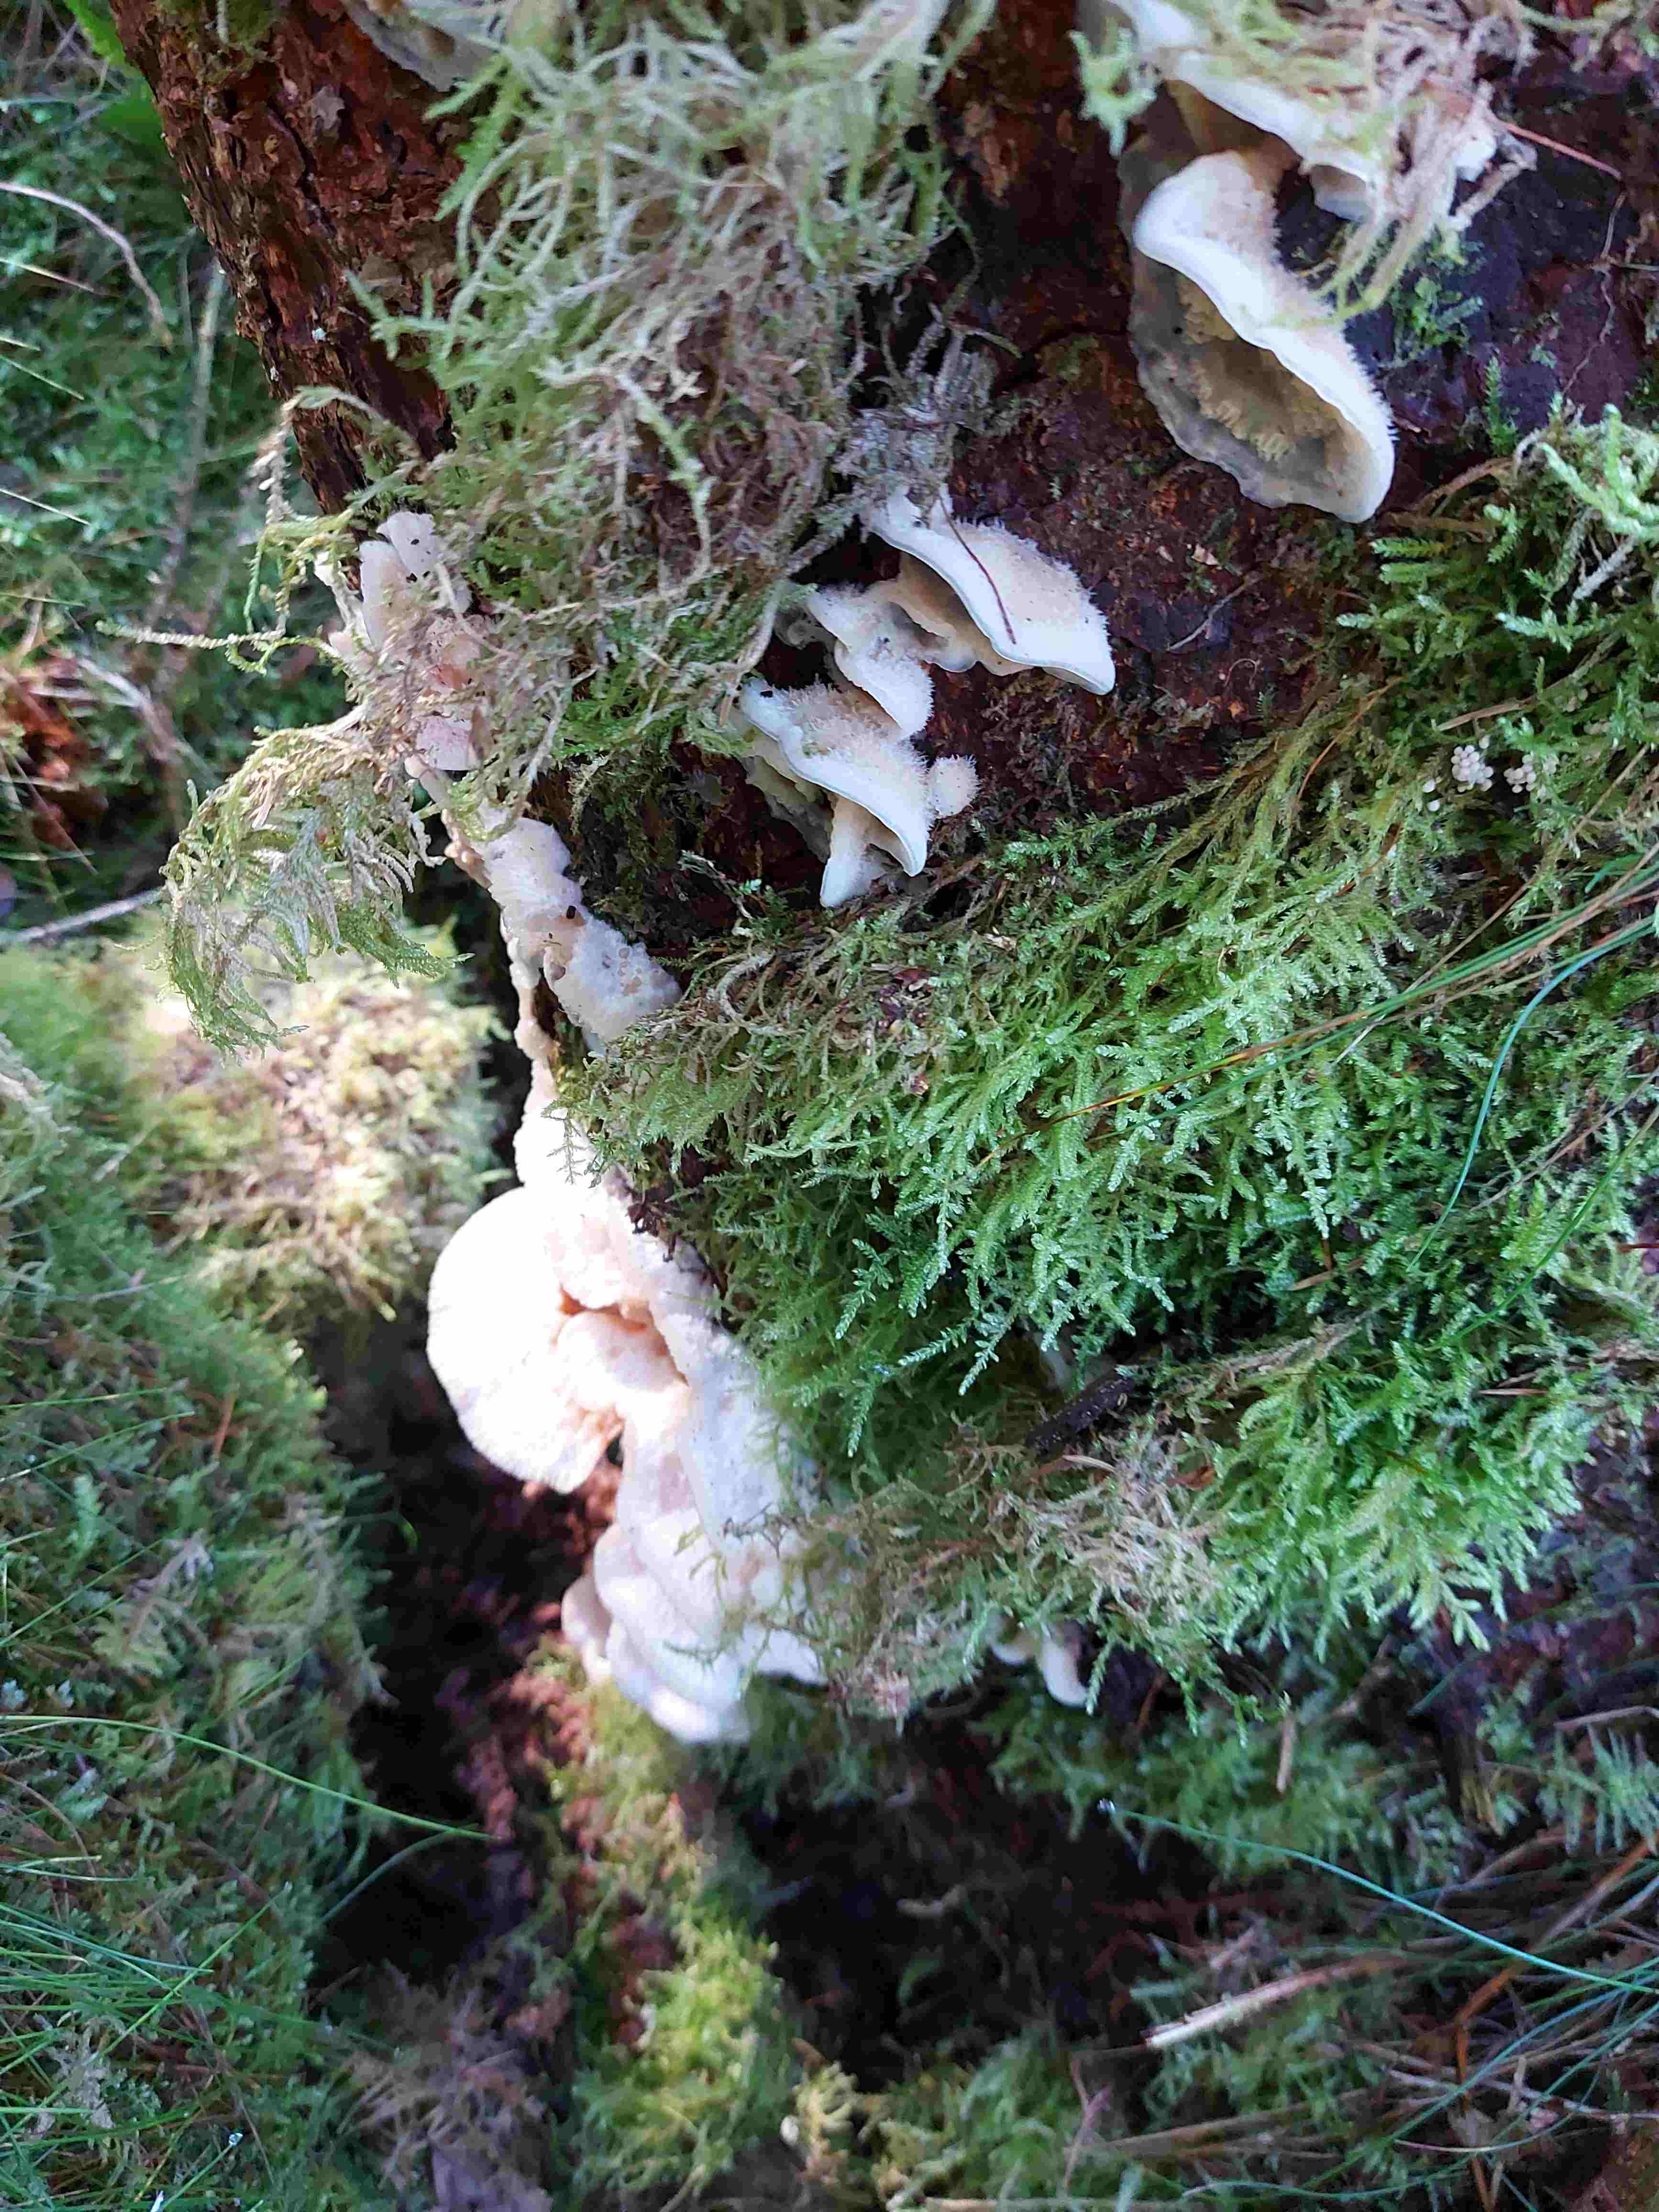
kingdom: Fungi
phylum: Basidiomycota
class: Agaricomycetes
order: Polyporales
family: Meruliaceae
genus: Phlebia
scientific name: Phlebia tremellosa
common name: bævrende åresvamp
